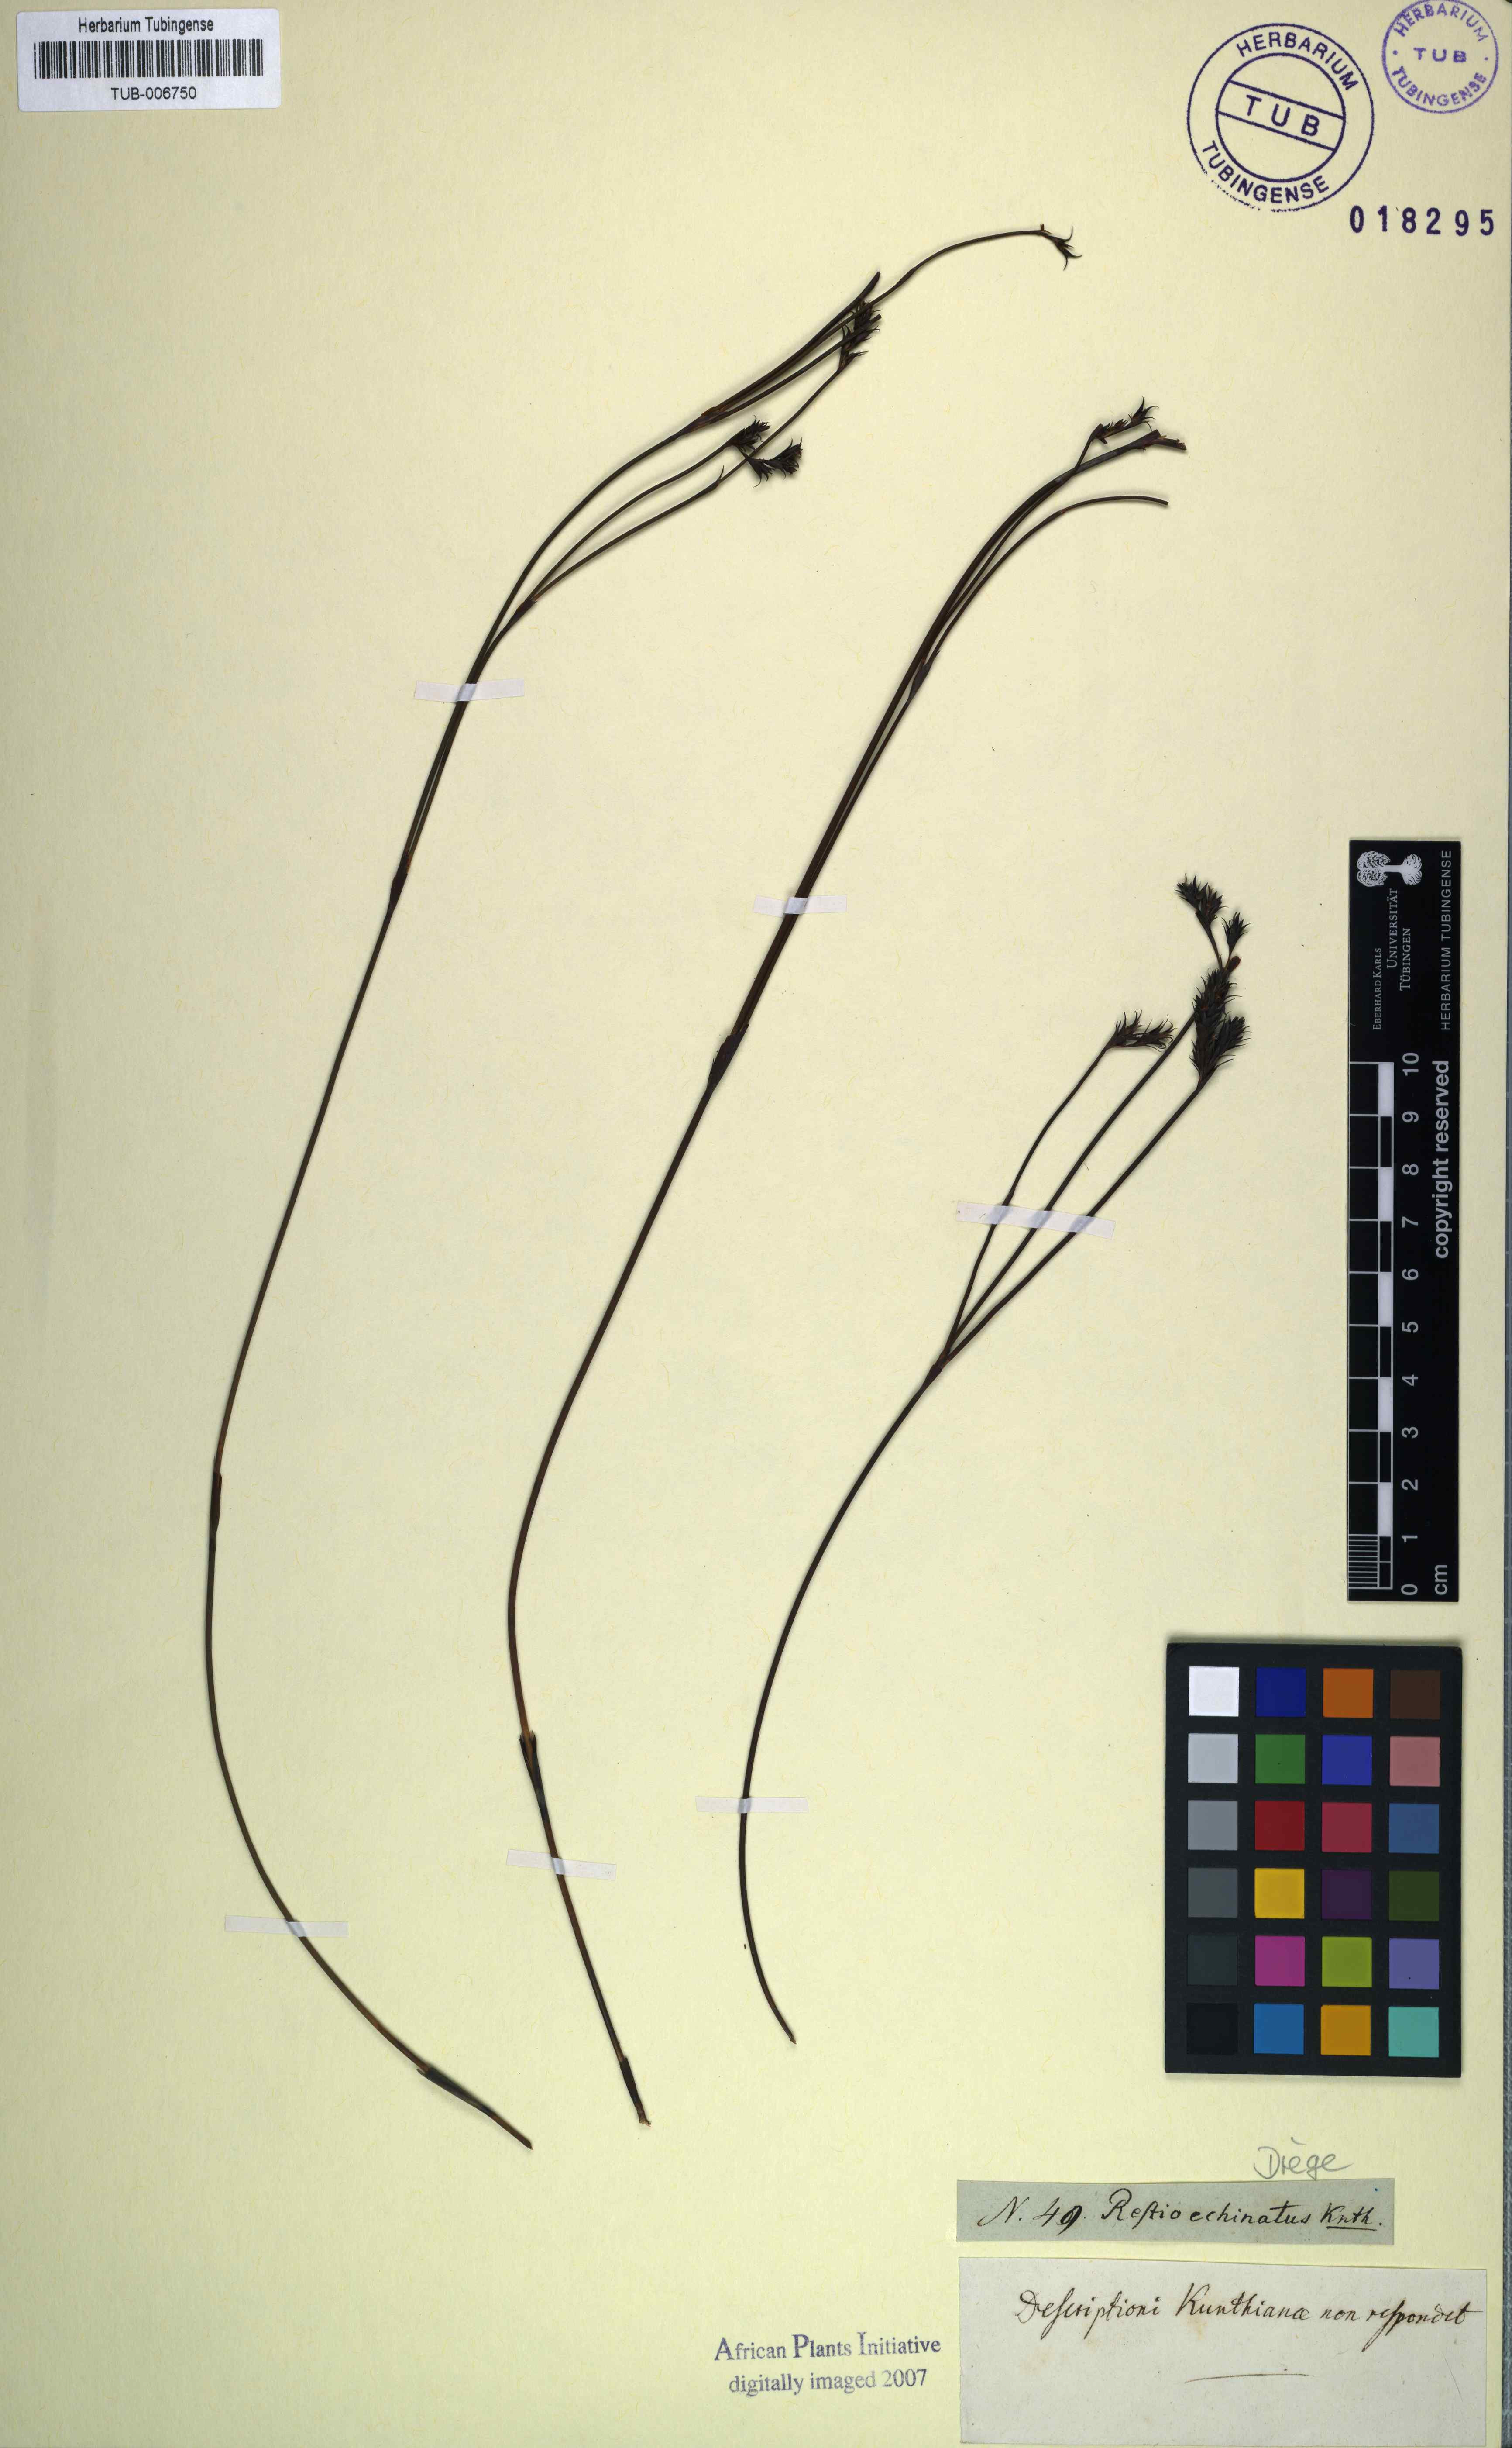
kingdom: Plantae
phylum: Tracheophyta
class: Liliopsida
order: Poales
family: Restionaceae
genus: Restio
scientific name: Restio capensis
